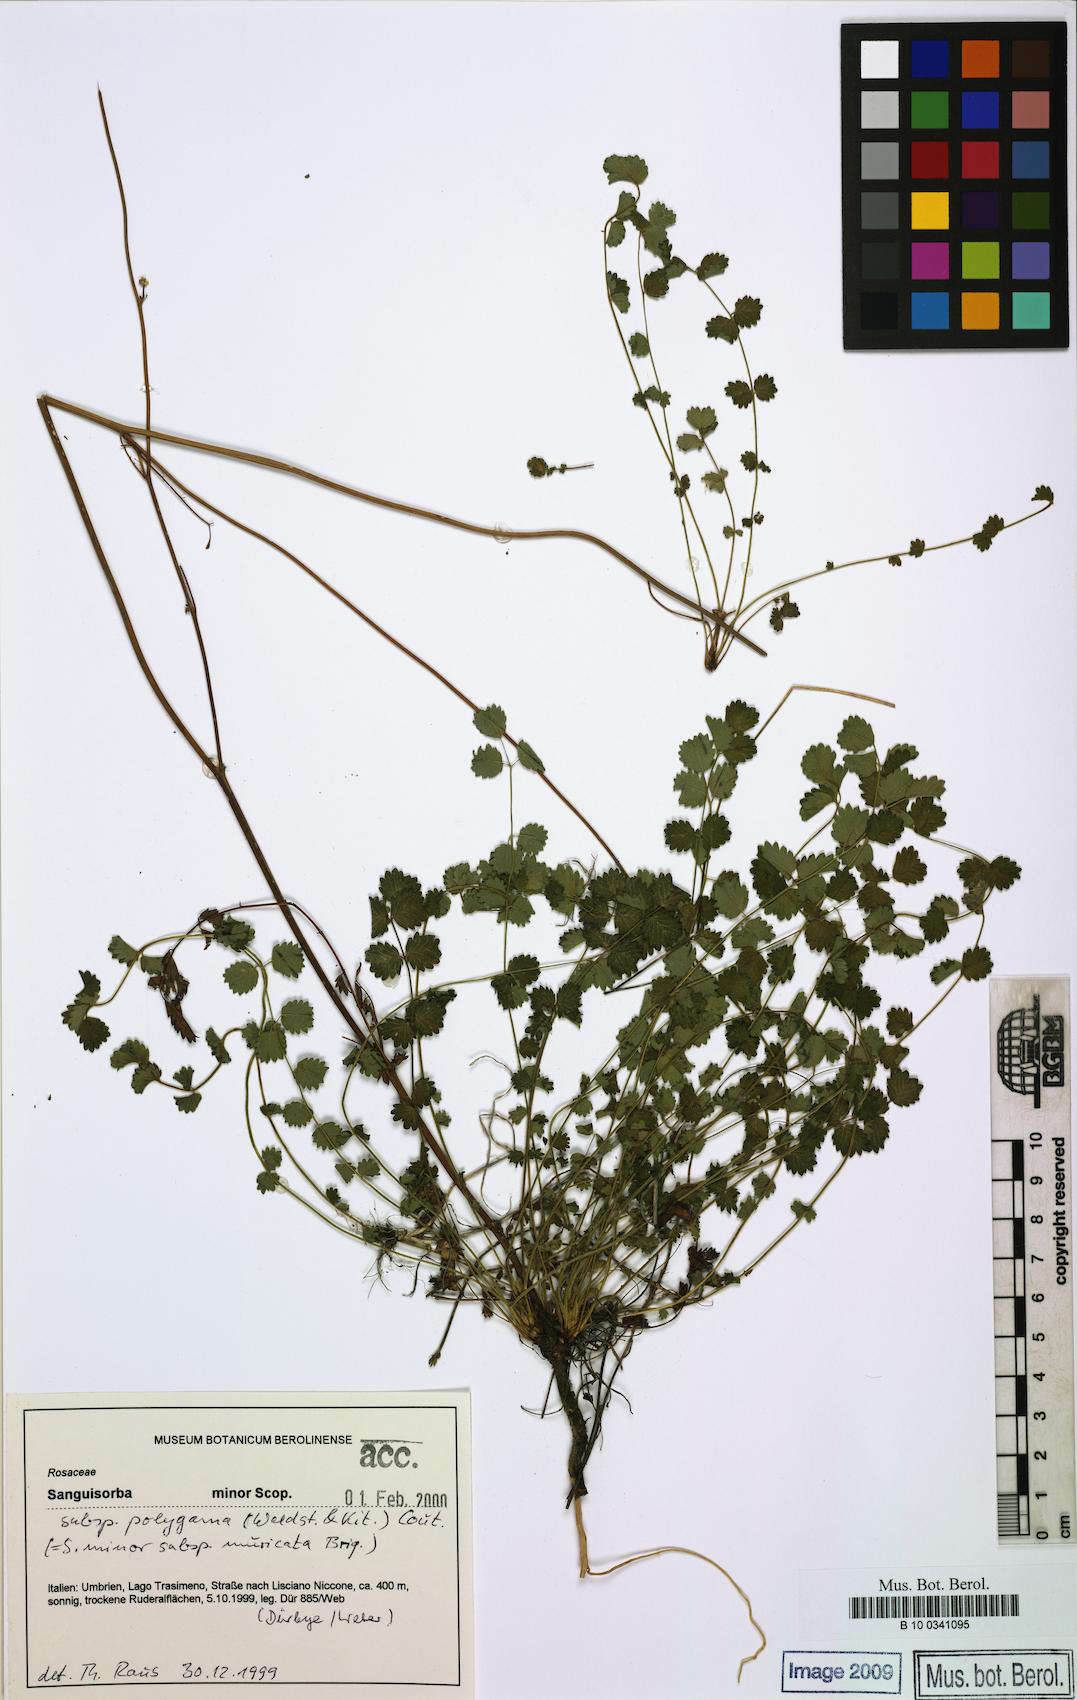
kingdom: Plantae
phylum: Tracheophyta
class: Magnoliopsida
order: Rosales
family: Rosaceae
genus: Poterium
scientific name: Poterium sanguisorba
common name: Salad burnet
